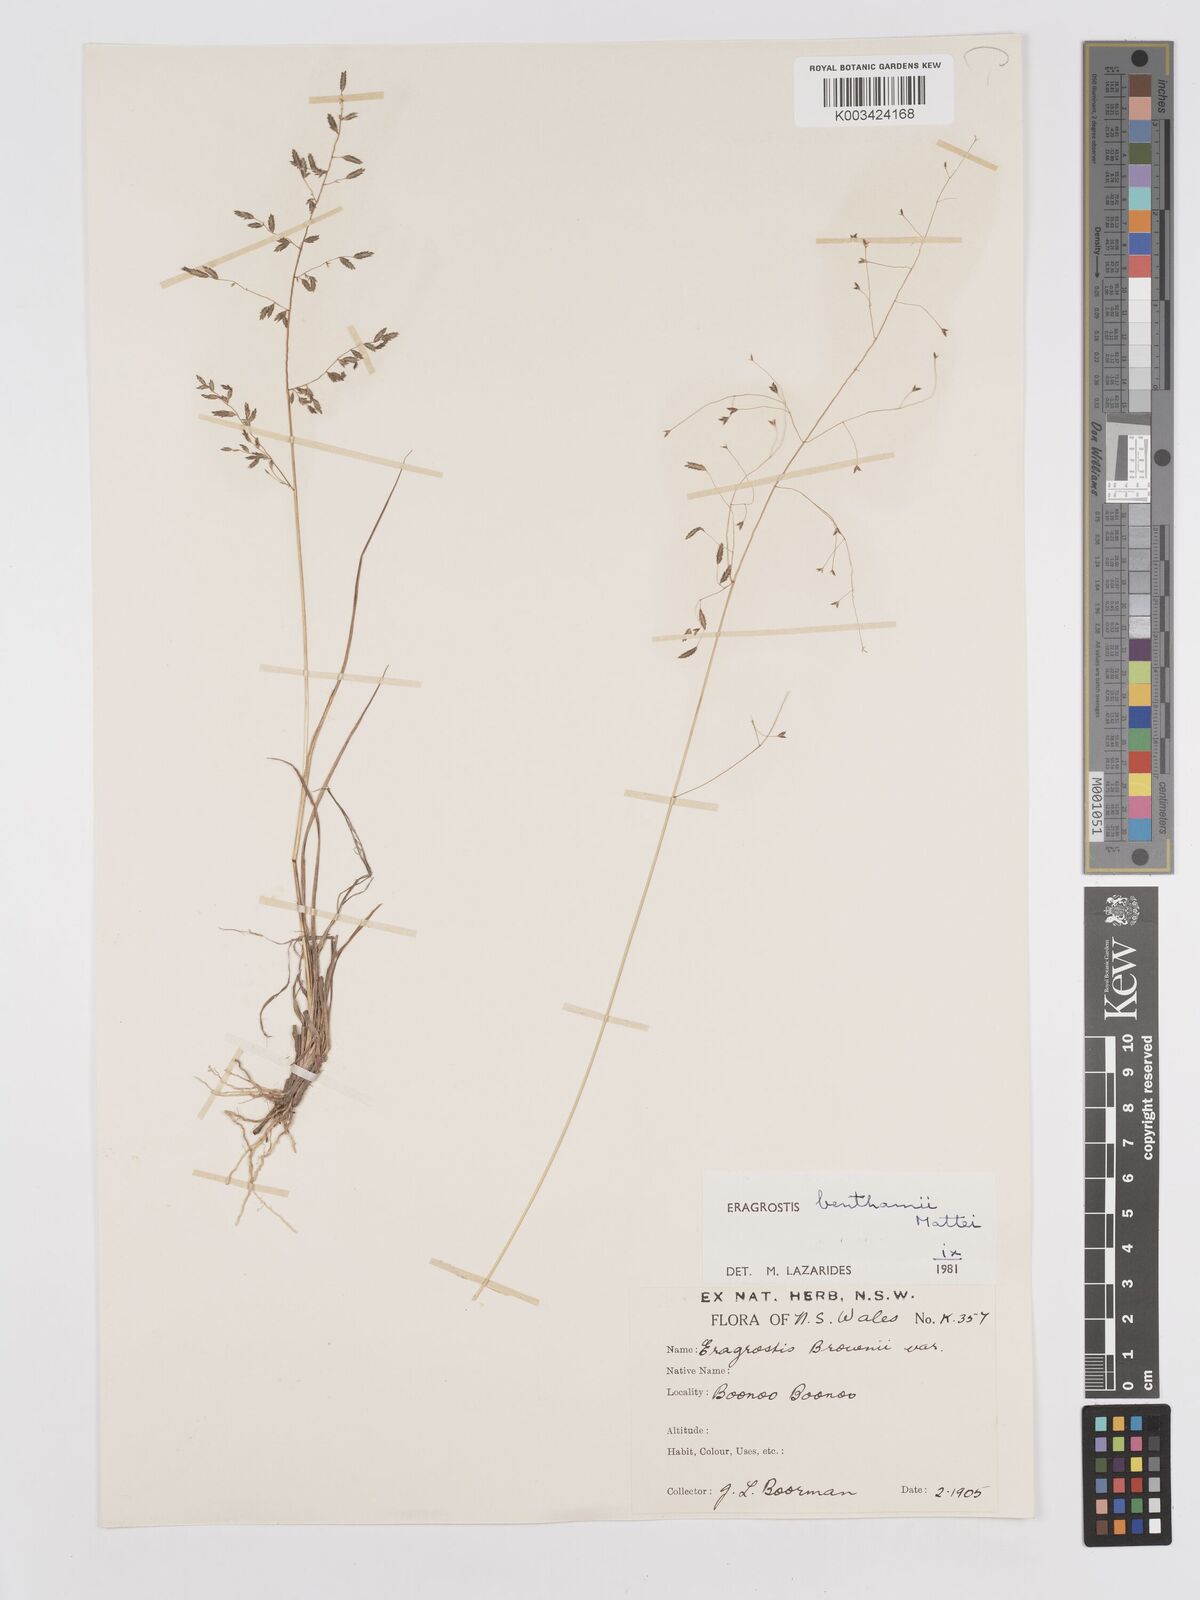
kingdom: Plantae
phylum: Tracheophyta
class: Liliopsida
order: Poales
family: Poaceae
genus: Eragrostis
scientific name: Eragrostis brownii
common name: Lovegrass
